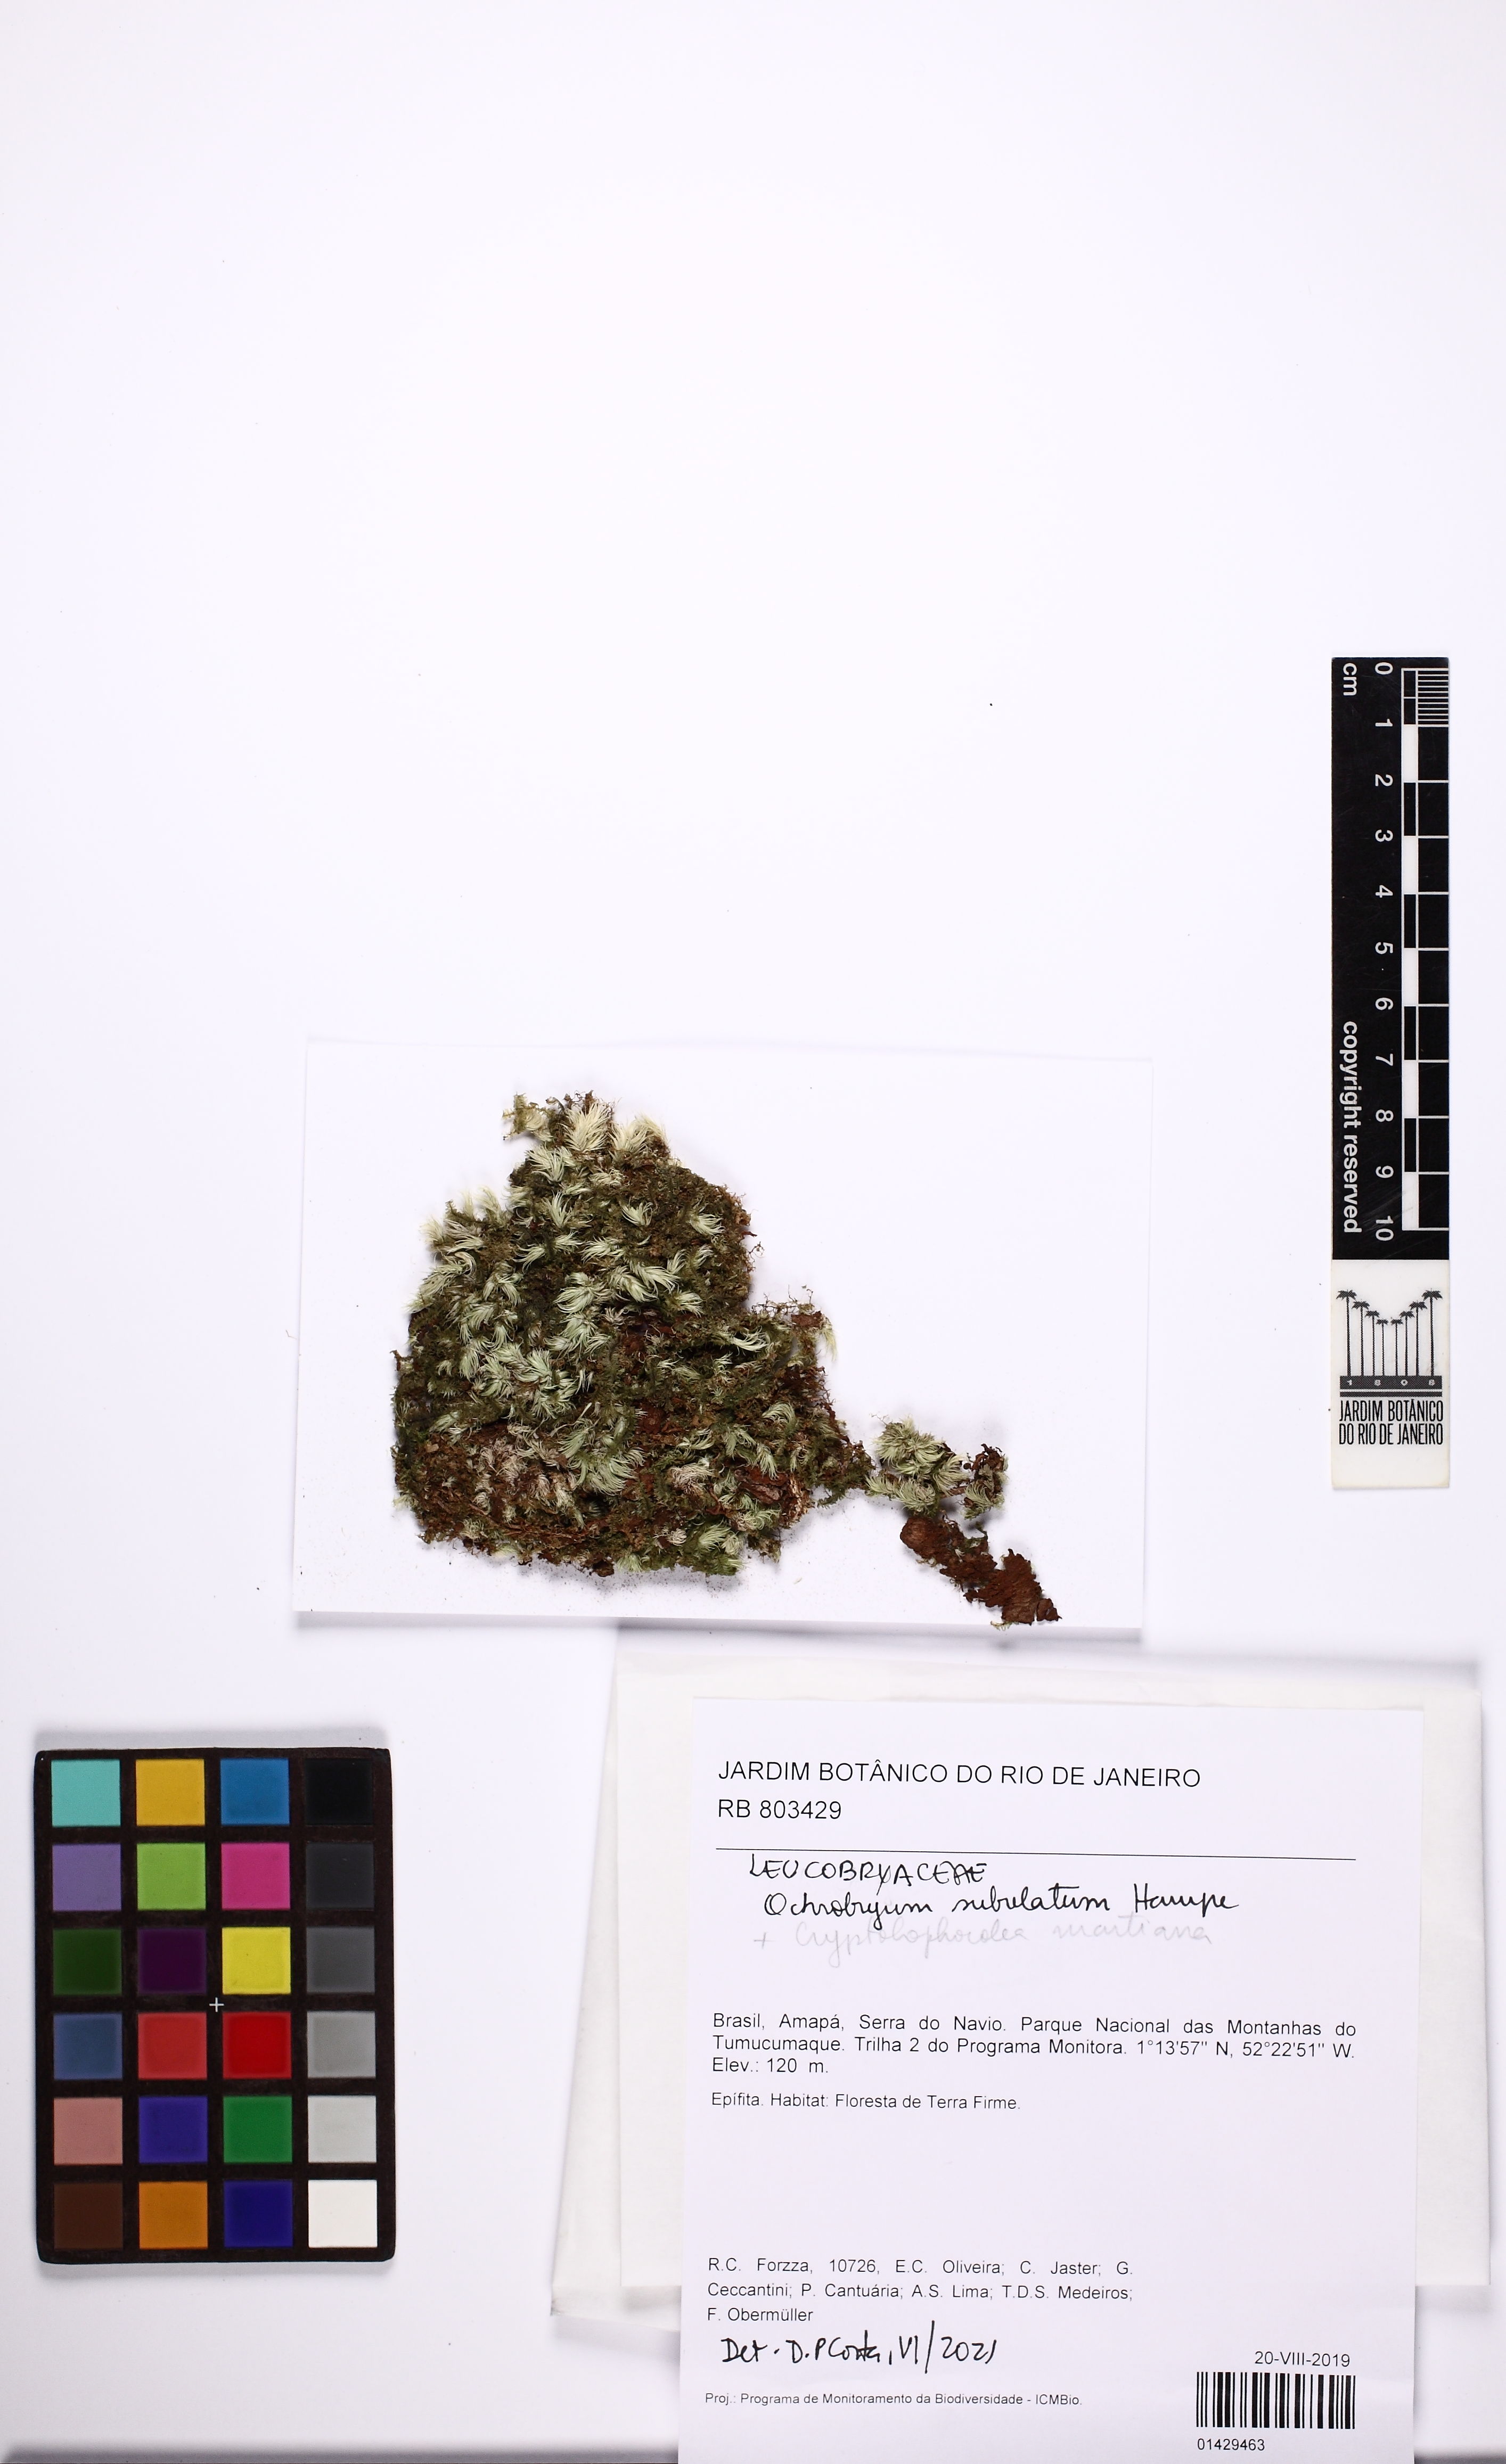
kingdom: Plantae
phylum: Bryophyta
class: Bryopsida
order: Dicranales
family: Leucobryaceae
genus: Ochrobryum
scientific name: Ochrobryum subulatum
